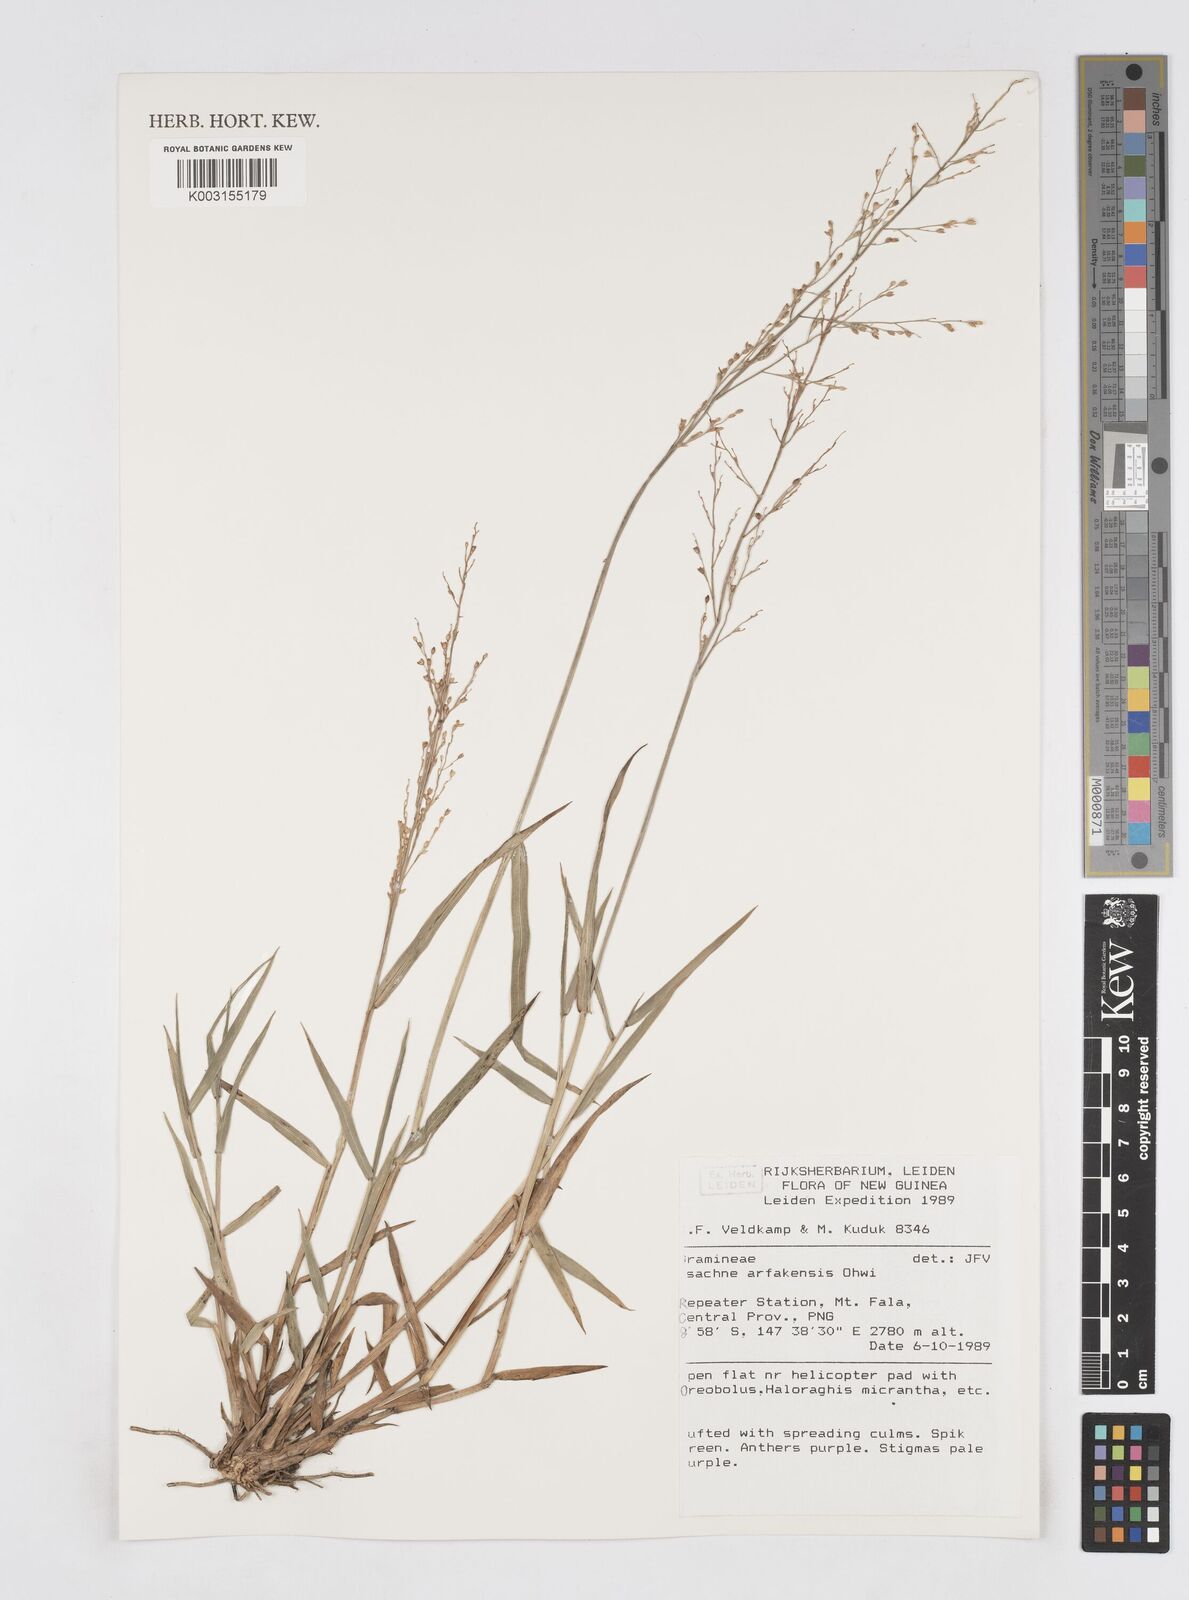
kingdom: Plantae
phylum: Tracheophyta
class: Liliopsida
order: Poales
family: Poaceae
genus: Isachne
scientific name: Isachne arfakensis
